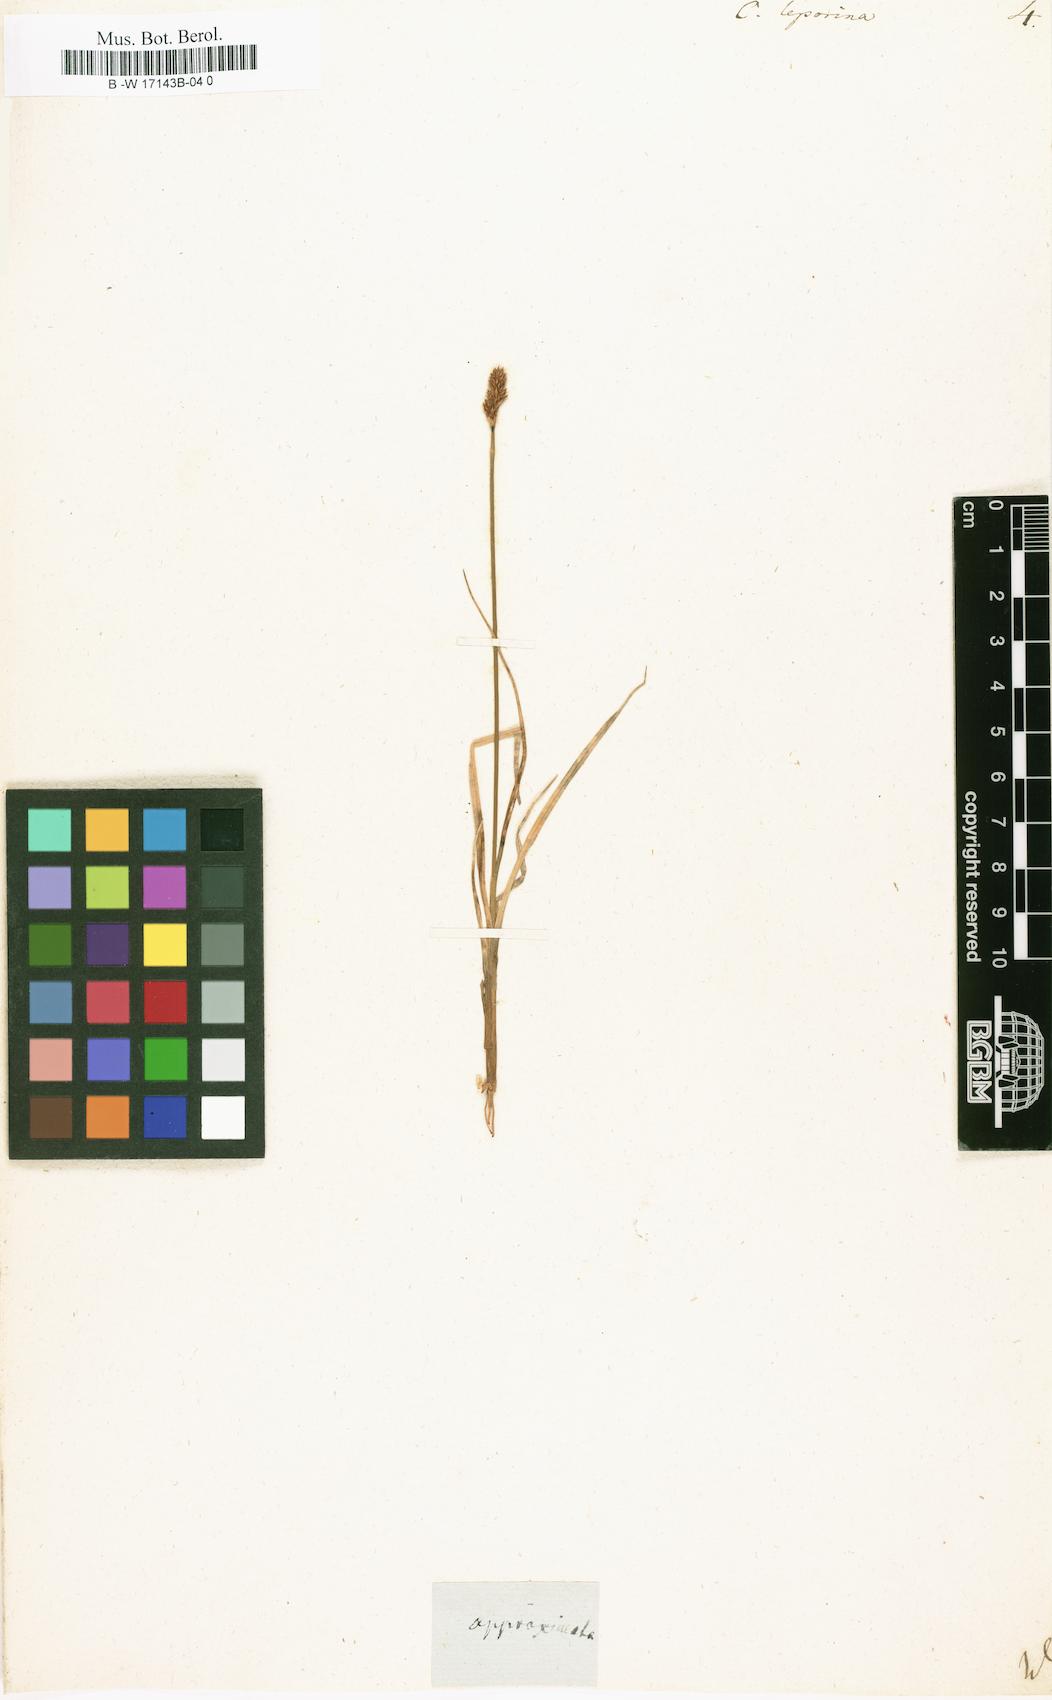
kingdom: Plantae
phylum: Tracheophyta
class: Liliopsida
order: Poales
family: Cyperaceae
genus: Carex
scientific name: Carex leporina
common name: Oval sedge
